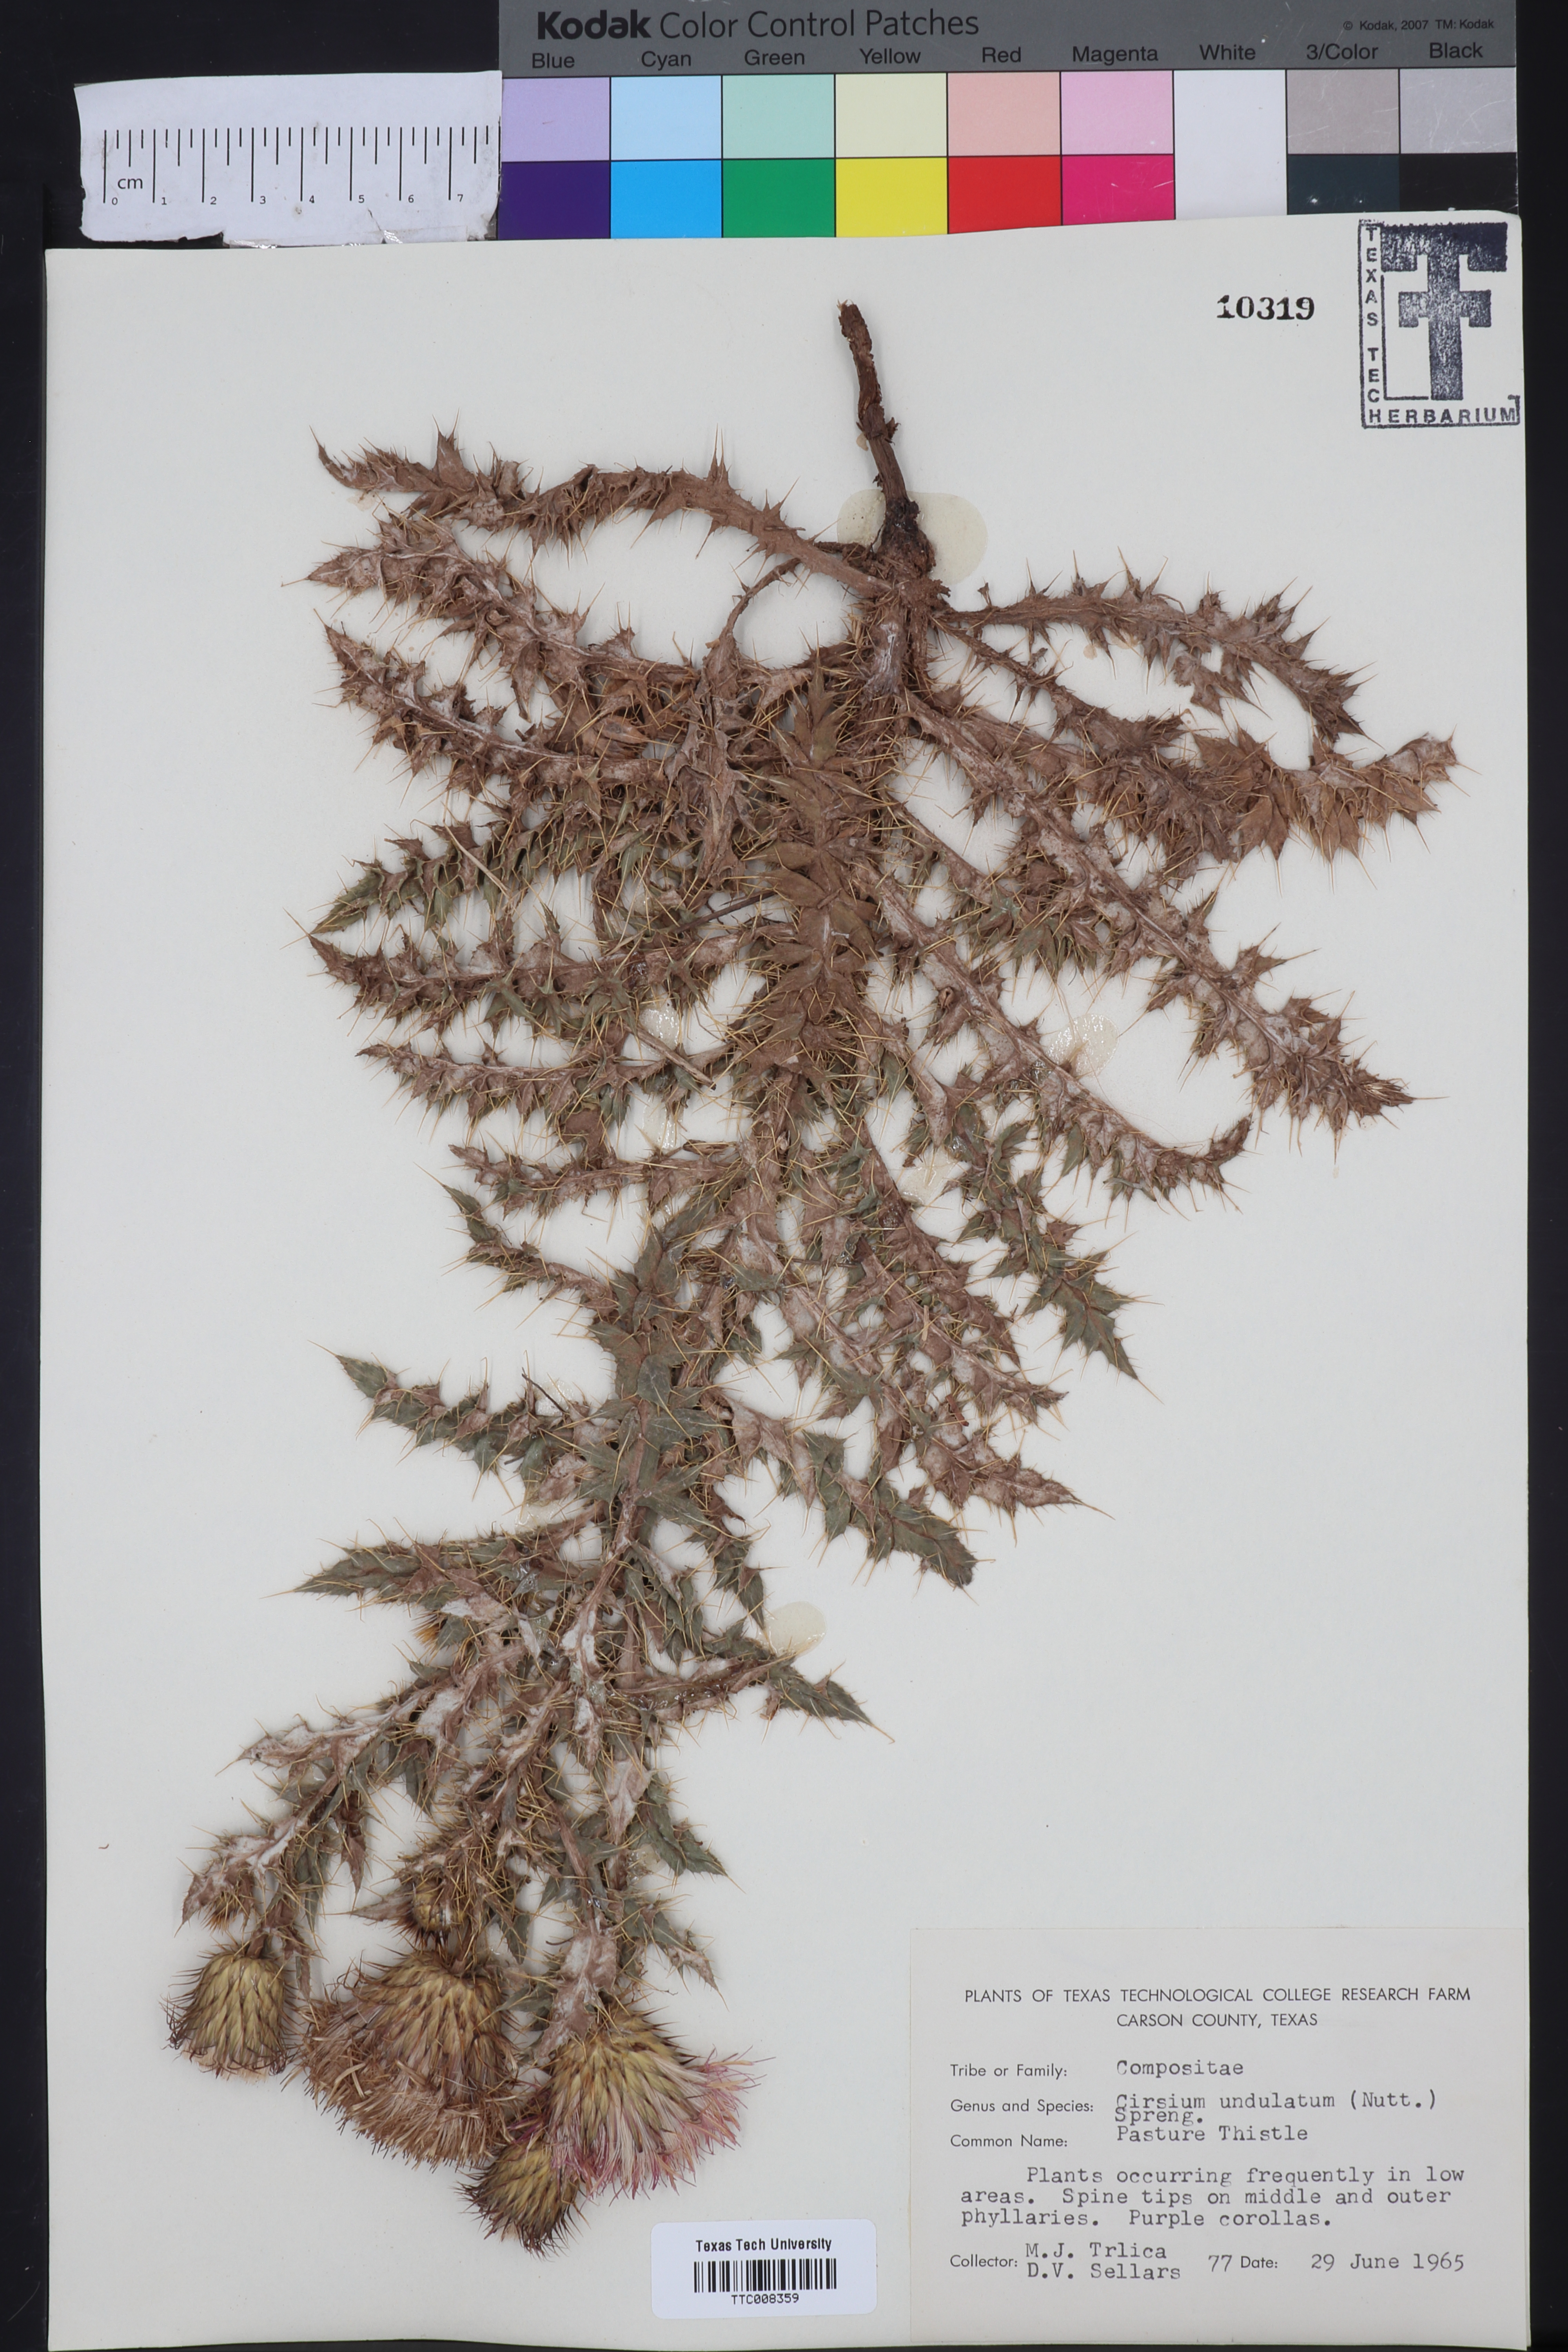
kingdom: Plantae
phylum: Tracheophyta
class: Magnoliopsida
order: Asterales
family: Asteraceae
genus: Cirsium
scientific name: Cirsium undulatum
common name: Pasture thistle
